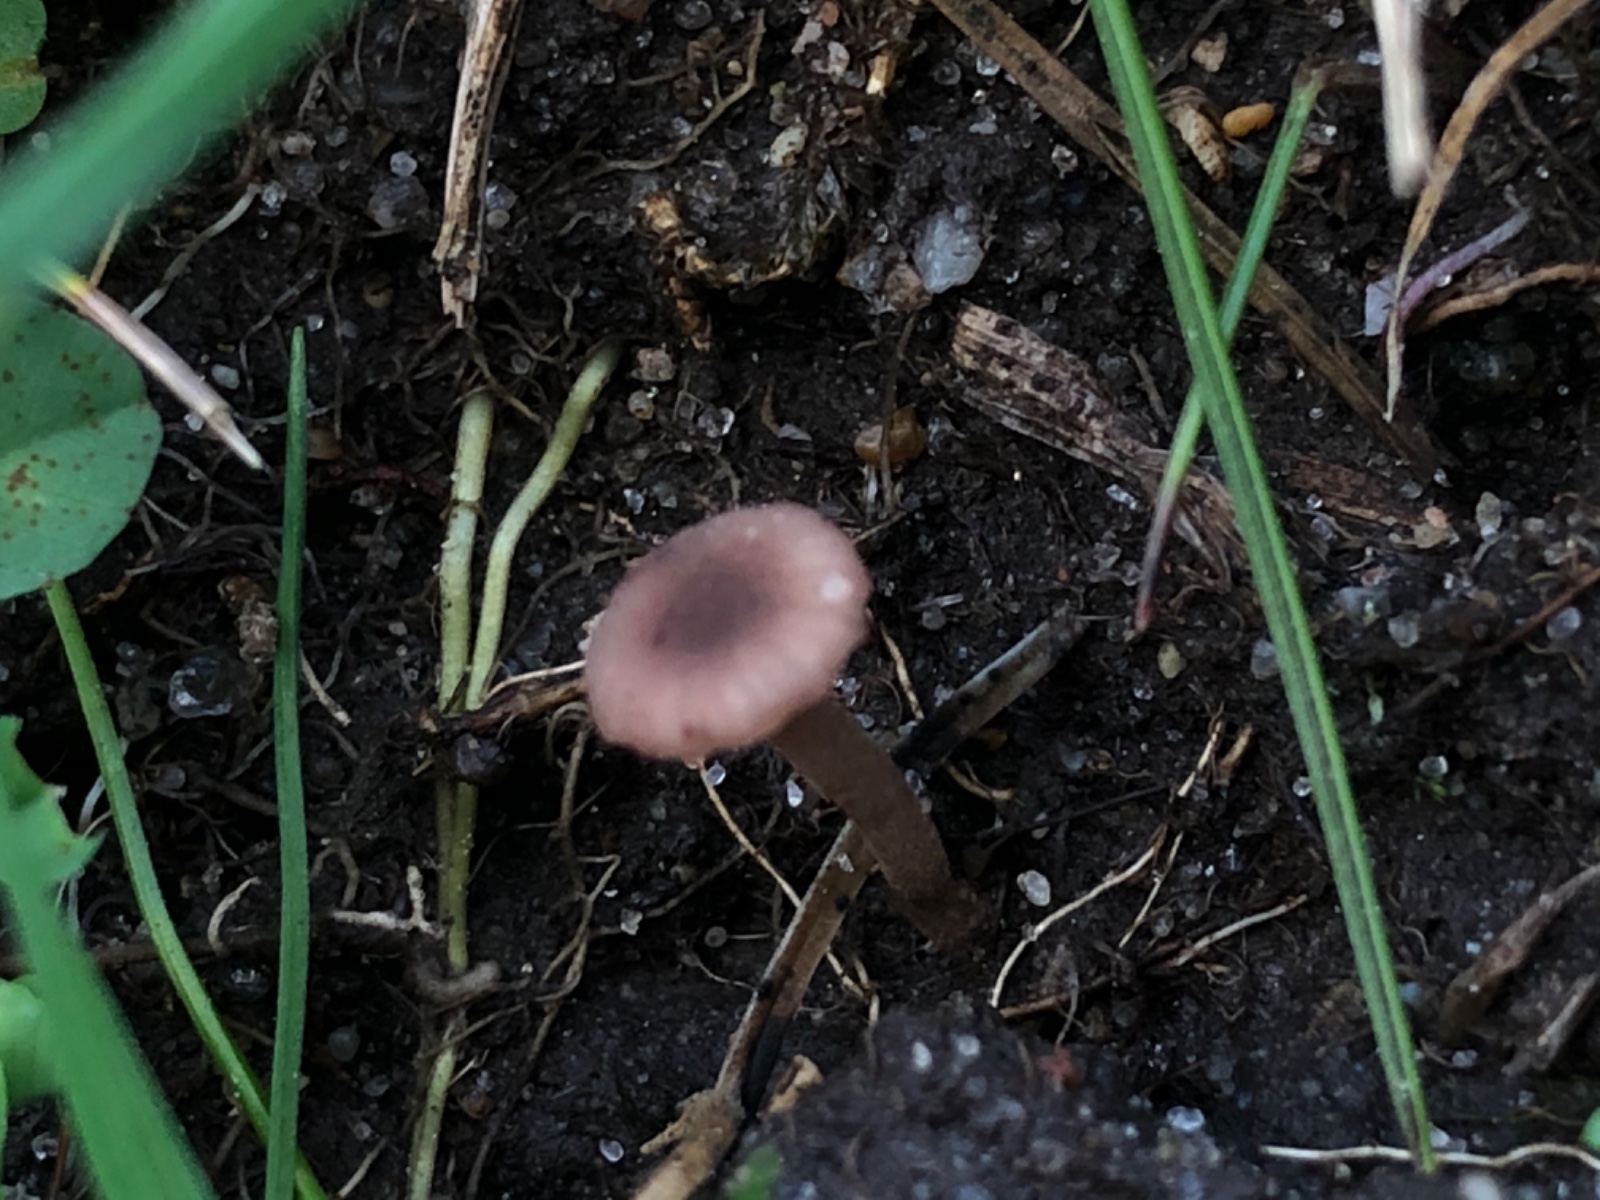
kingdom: Fungi
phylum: Basidiomycota
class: Agaricomycetes
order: Hymenochaetales
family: Rickenellaceae
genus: Contumyces
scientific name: Contumyces rosellus
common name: rosa mosnavlehat
